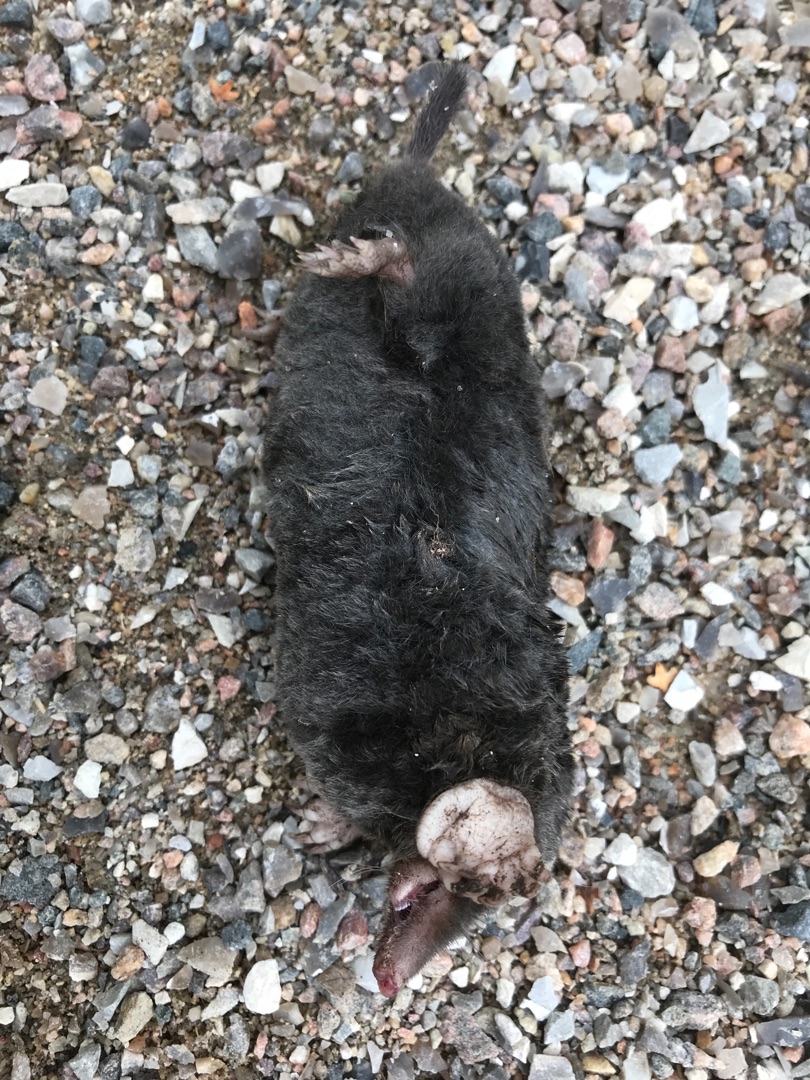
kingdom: Animalia
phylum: Chordata
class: Mammalia
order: Soricomorpha
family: Talpidae
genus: Talpa
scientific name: Talpa europaea
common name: Muldvarp
